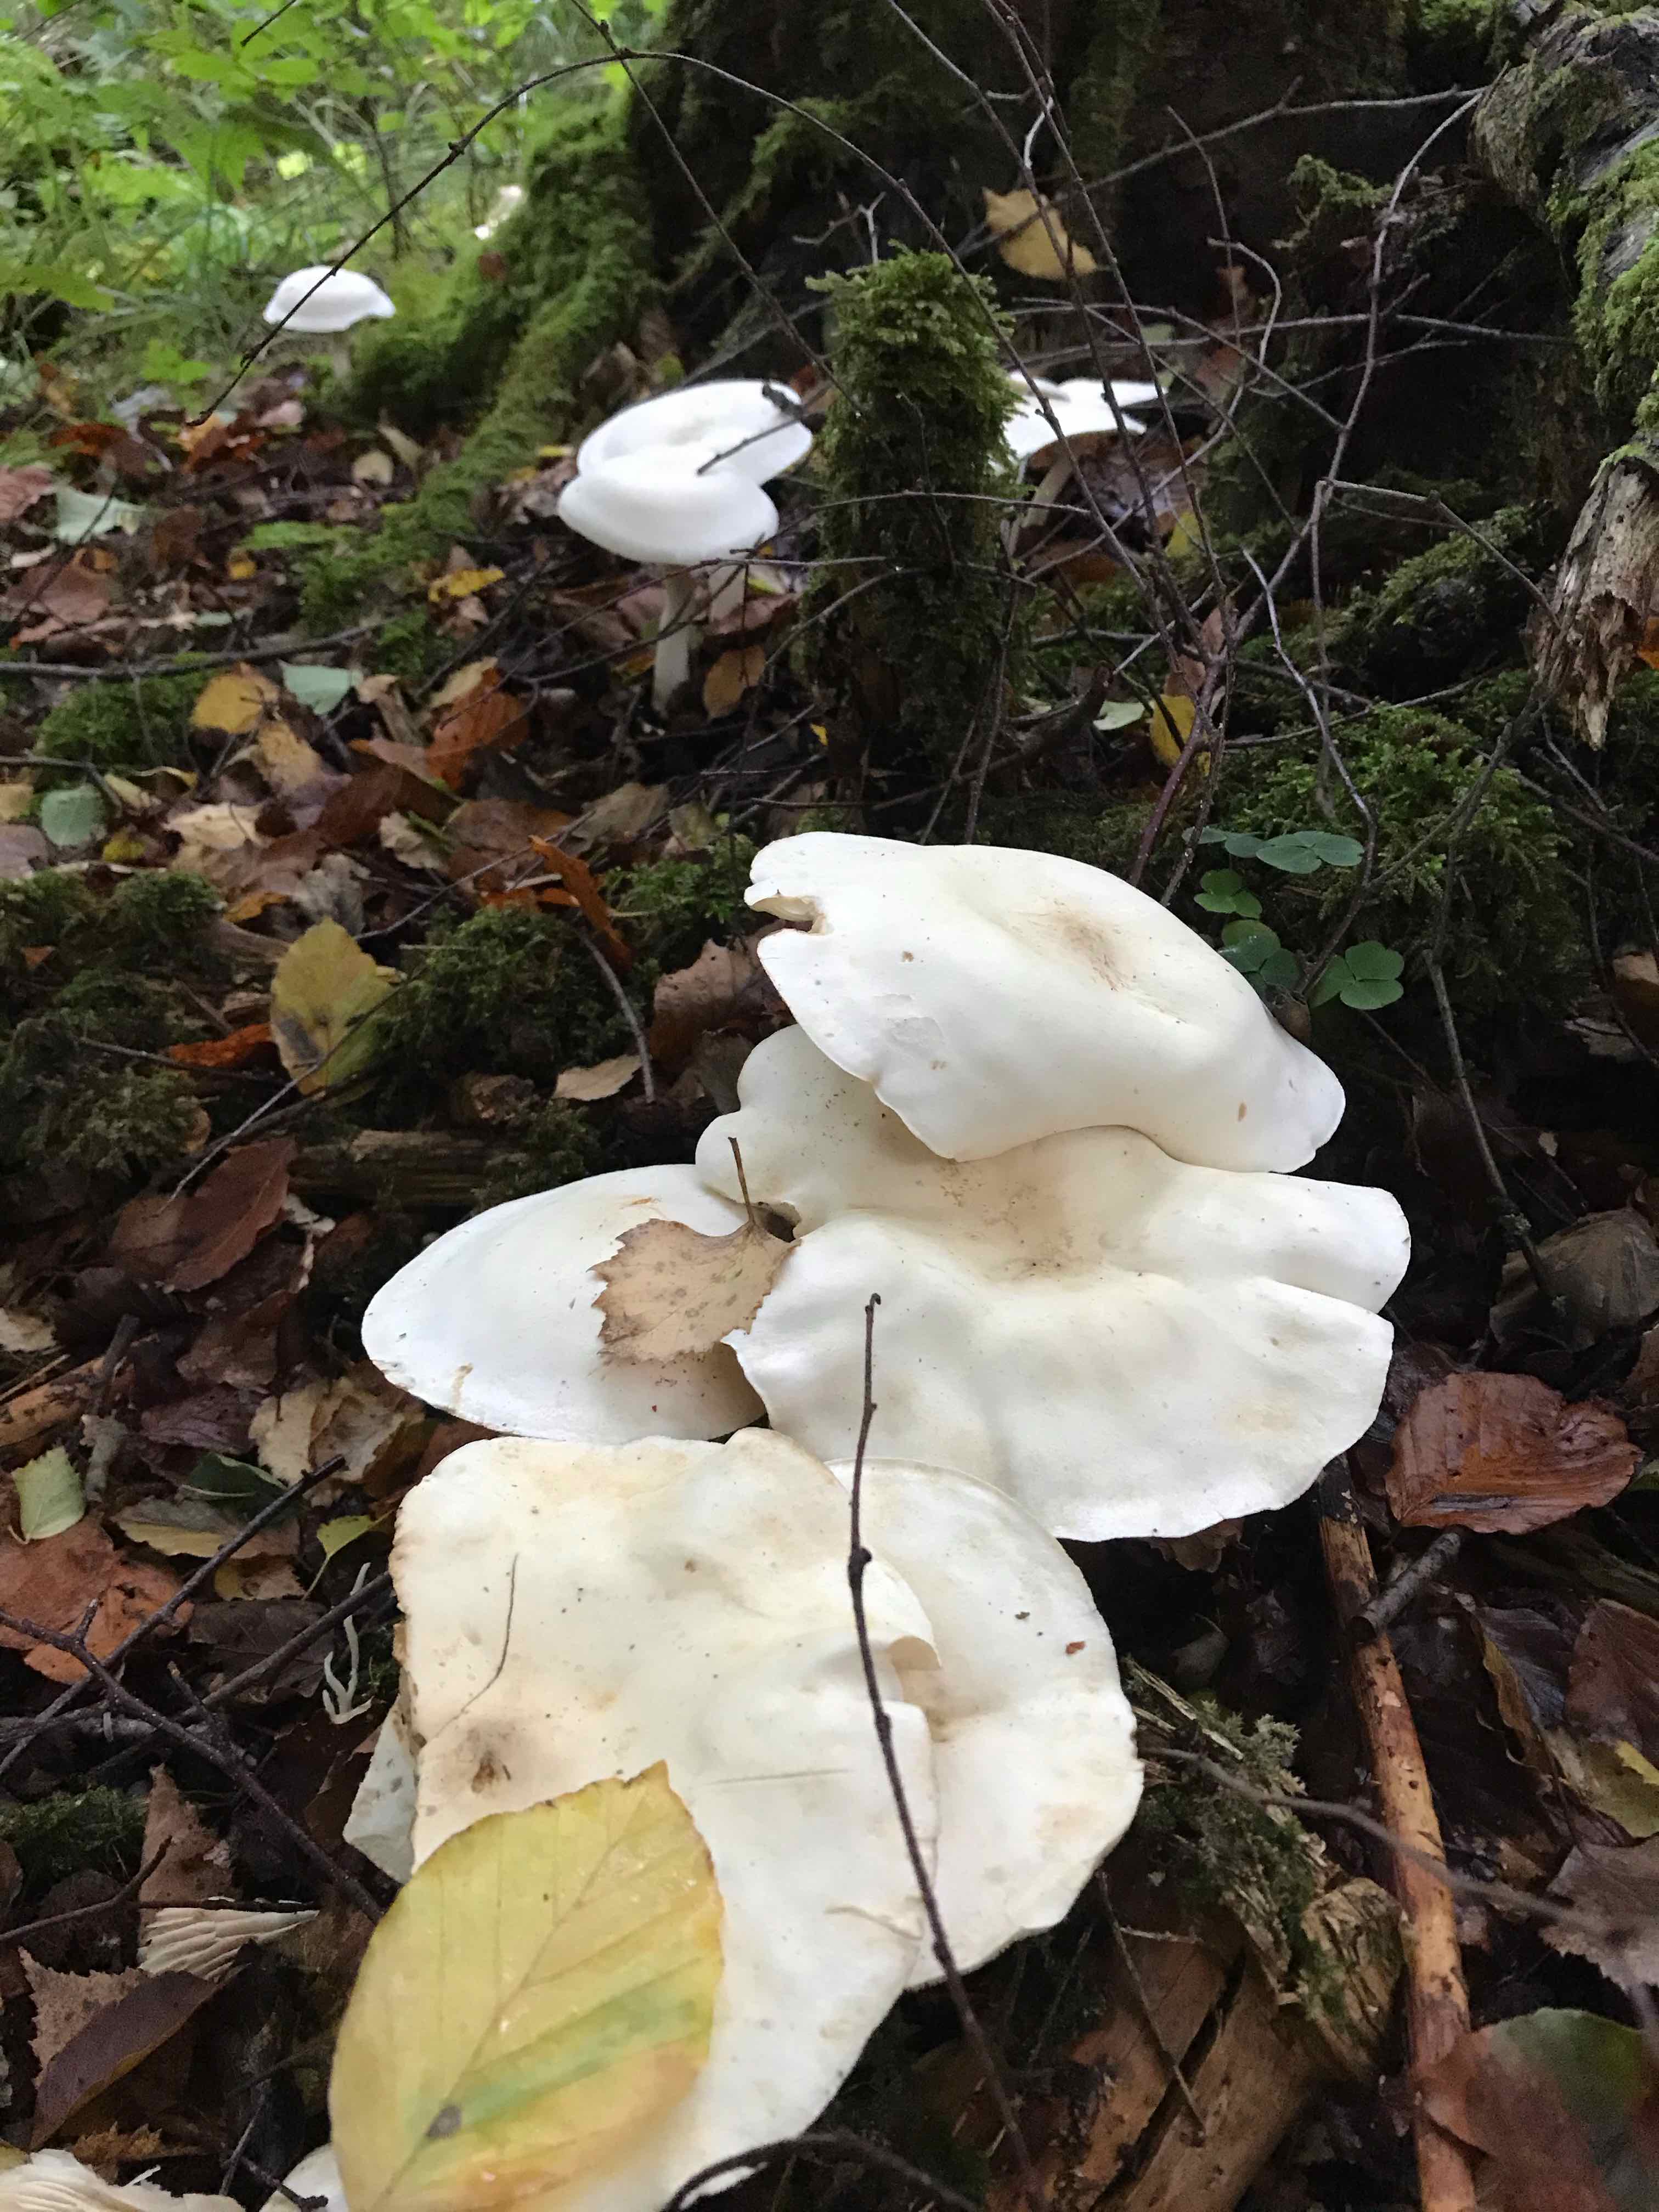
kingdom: Fungi
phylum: Basidiomycota
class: Agaricomycetes
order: Agaricales
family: Tricholomataceae
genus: Tricholoma
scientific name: Tricholoma stiparophyllum
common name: hvid ridderhat
